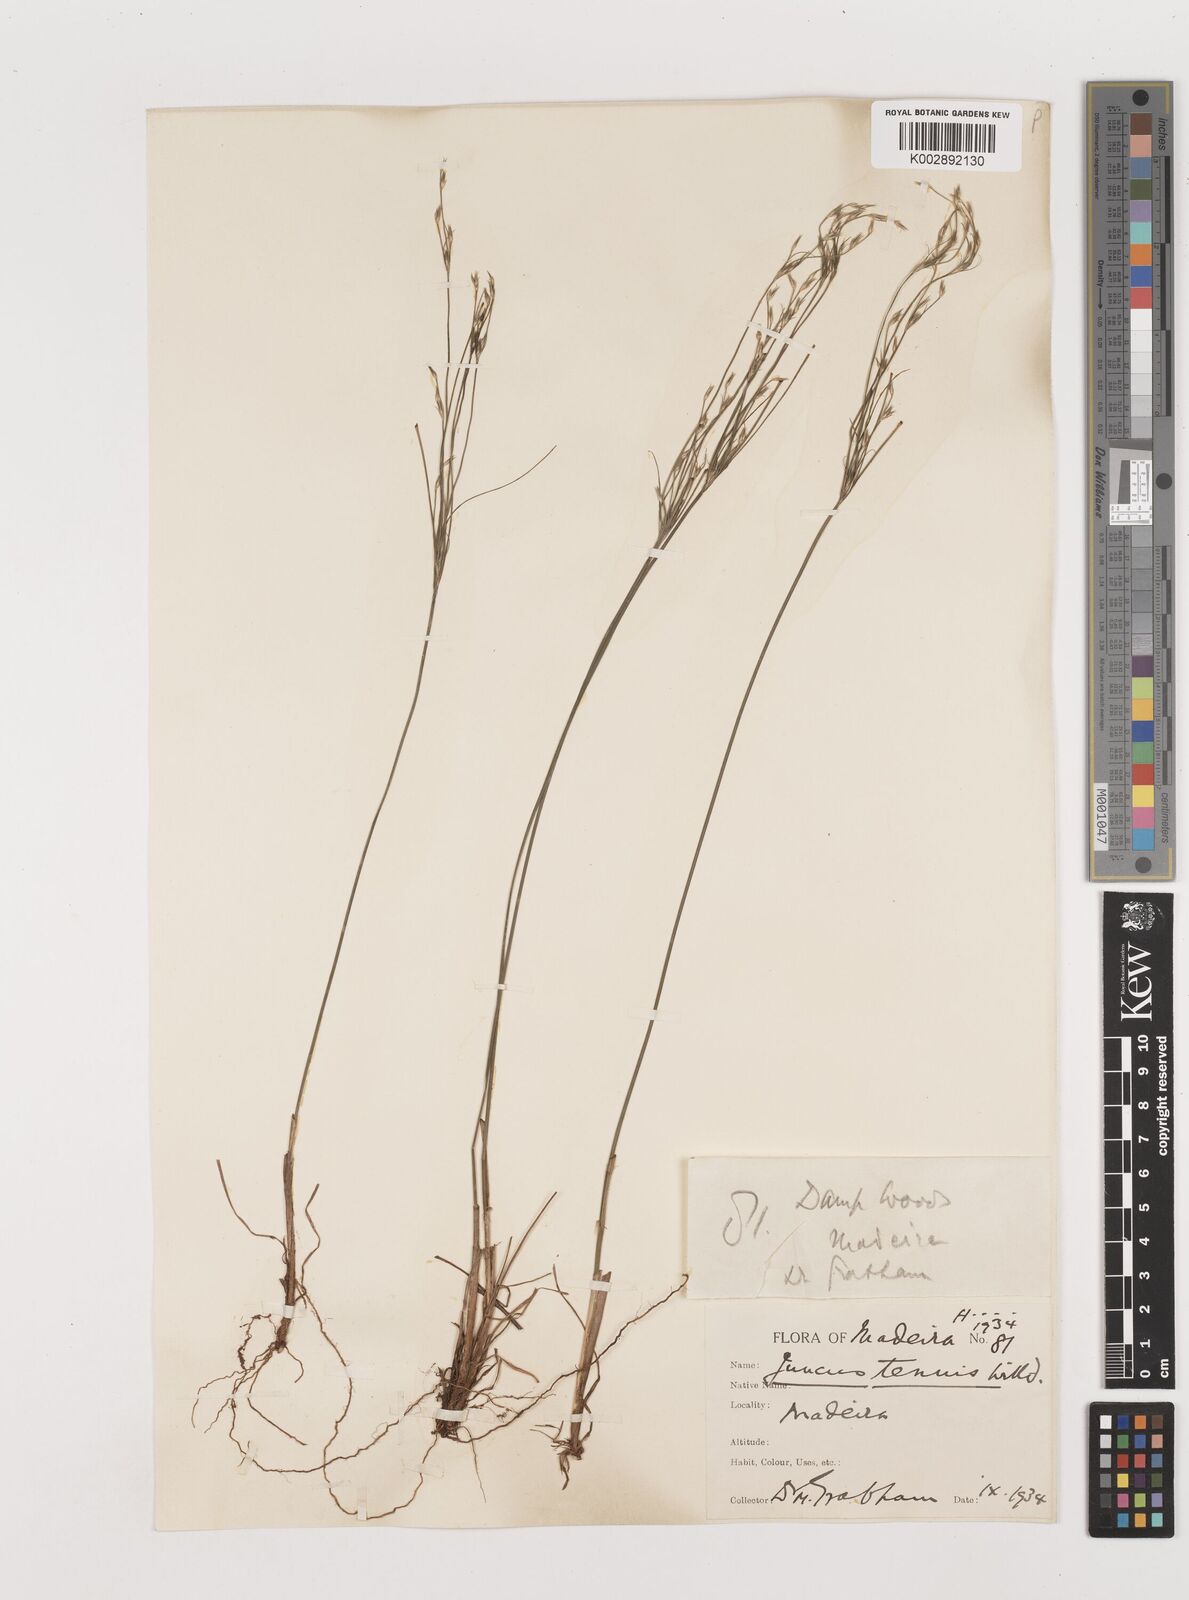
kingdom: Plantae
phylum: Tracheophyta
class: Liliopsida
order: Poales
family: Juncaceae
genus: Juncus
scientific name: Juncus tenuis
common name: Slender rush
